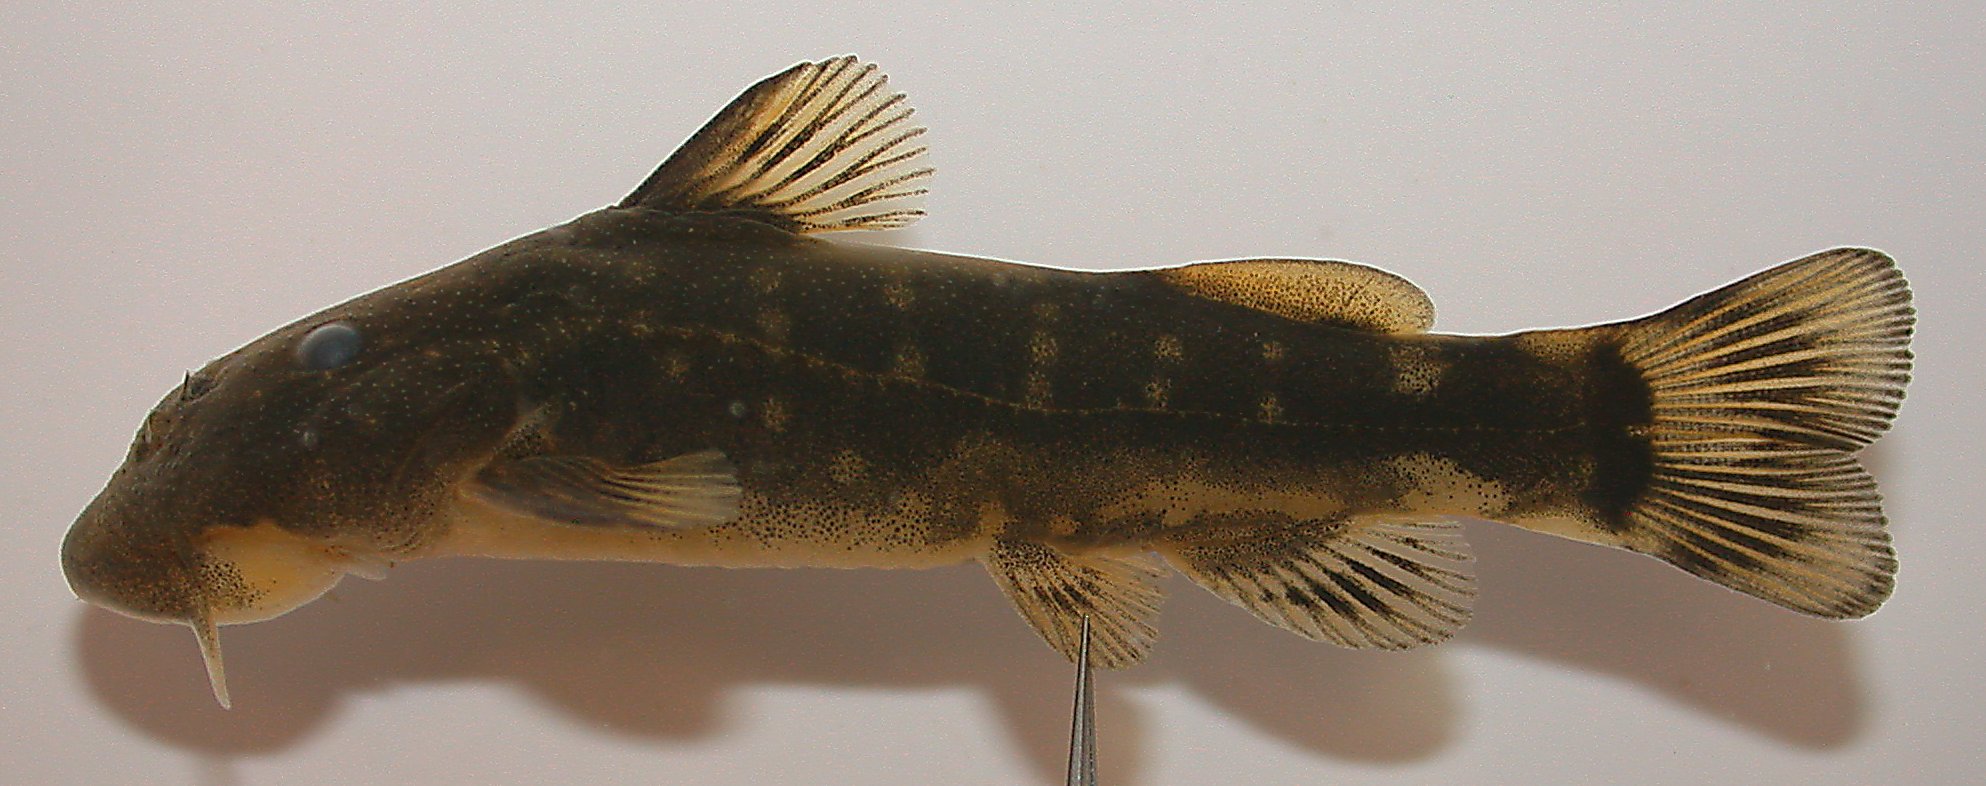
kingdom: Animalia
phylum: Chordata
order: Siluriformes
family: Mochokidae
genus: Chiloglanis
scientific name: Chiloglanis pretoriae
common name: Shortspine catlet
